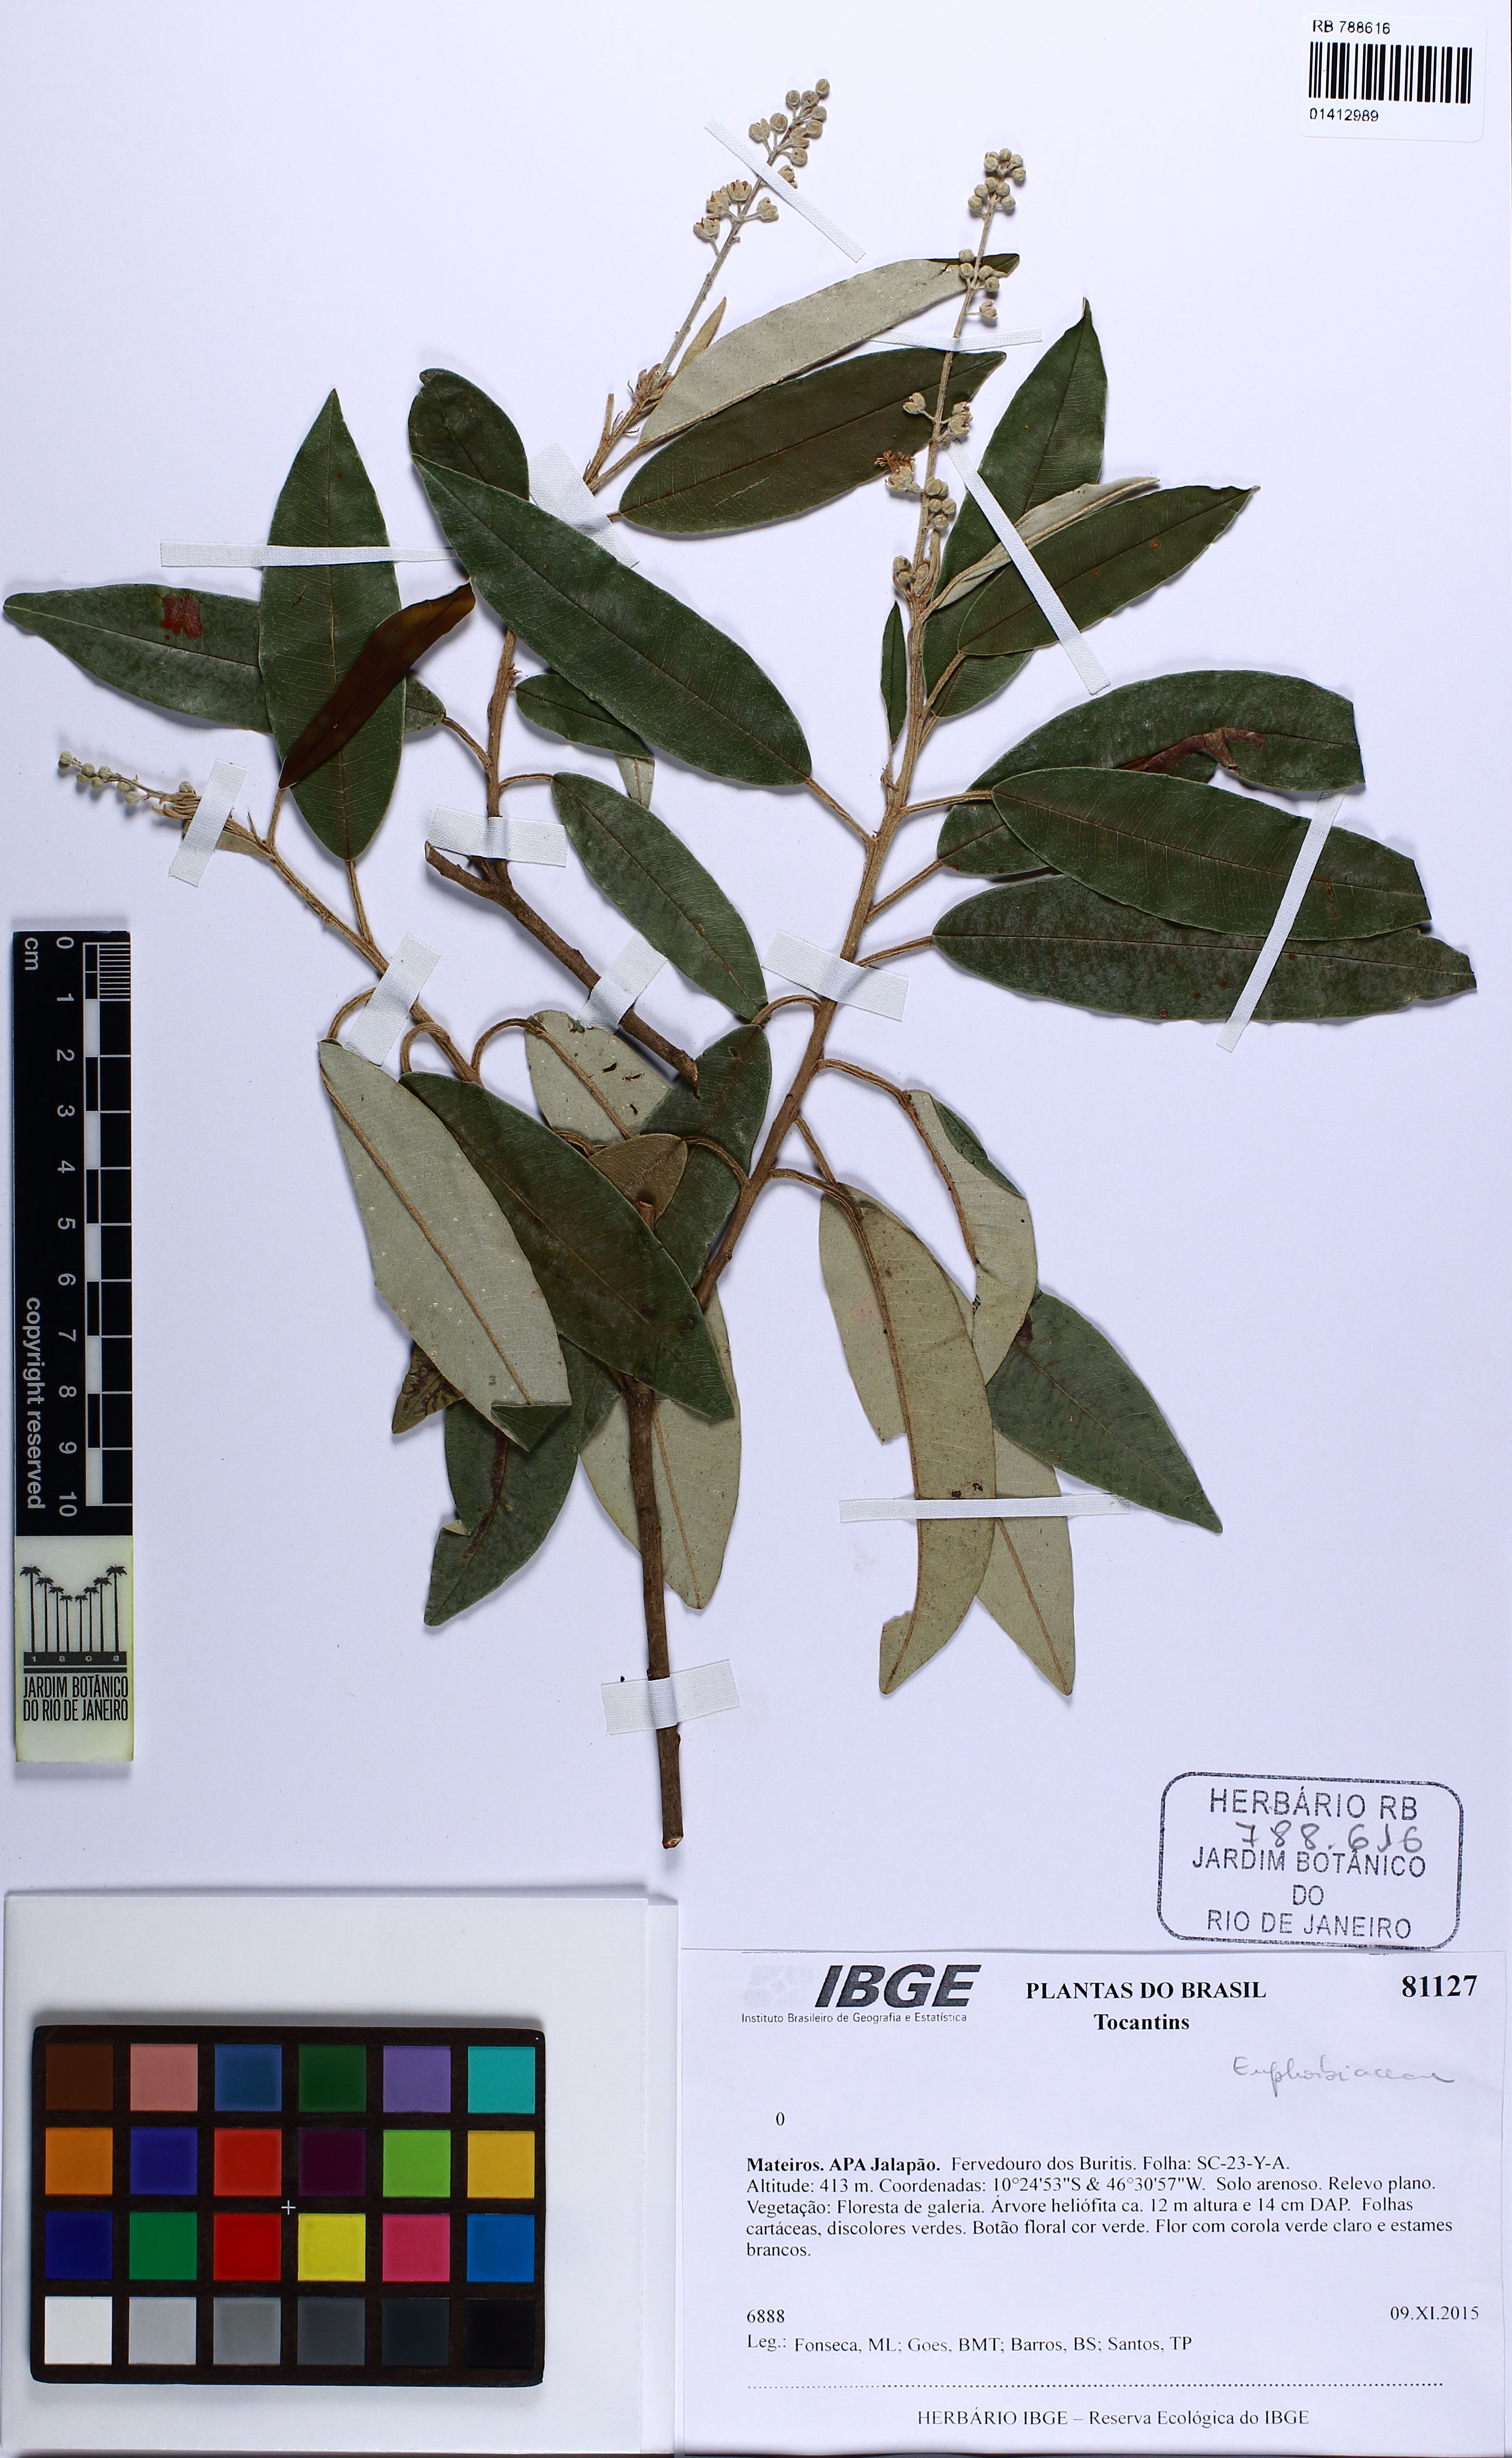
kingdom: Plantae
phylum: Tracheophyta
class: Magnoliopsida
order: Malpighiales
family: Euphorbiaceae
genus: Croton
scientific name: Croton
